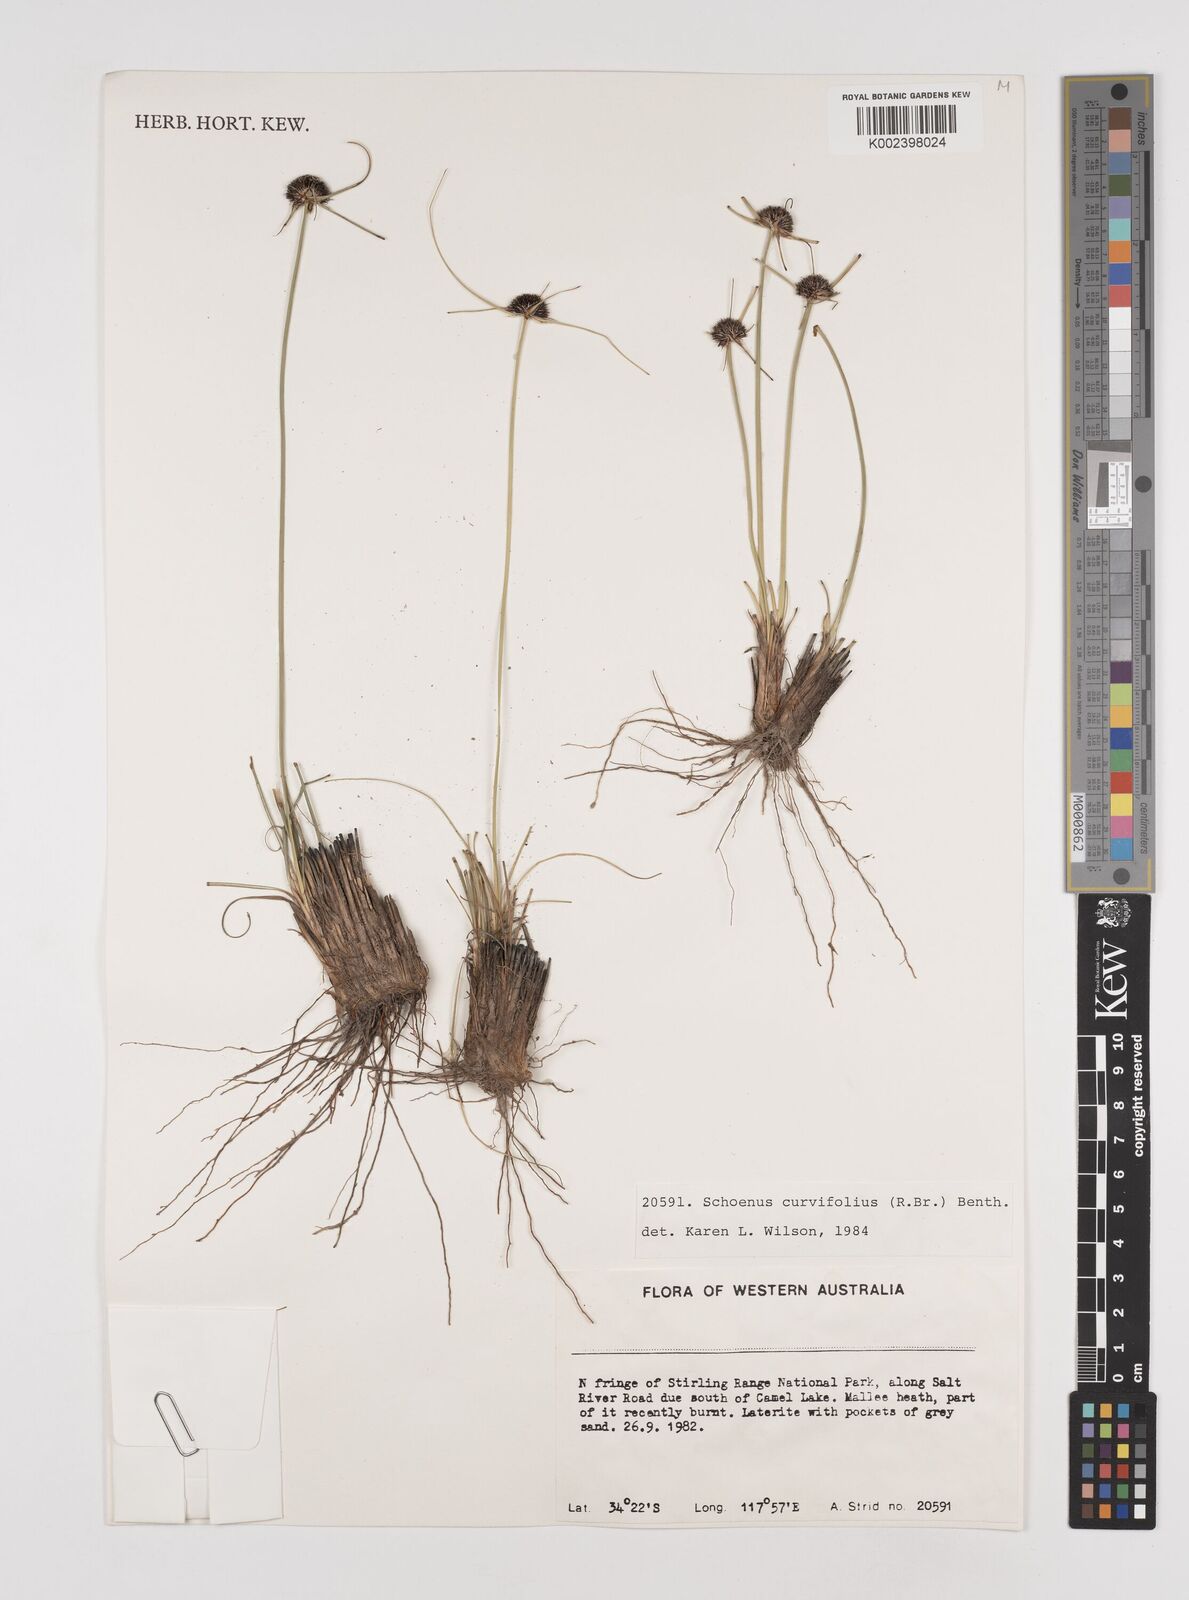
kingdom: Plantae
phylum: Tracheophyta
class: Liliopsida
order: Poales
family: Cyperaceae
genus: Schoenus
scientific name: Schoenus curvifolius
